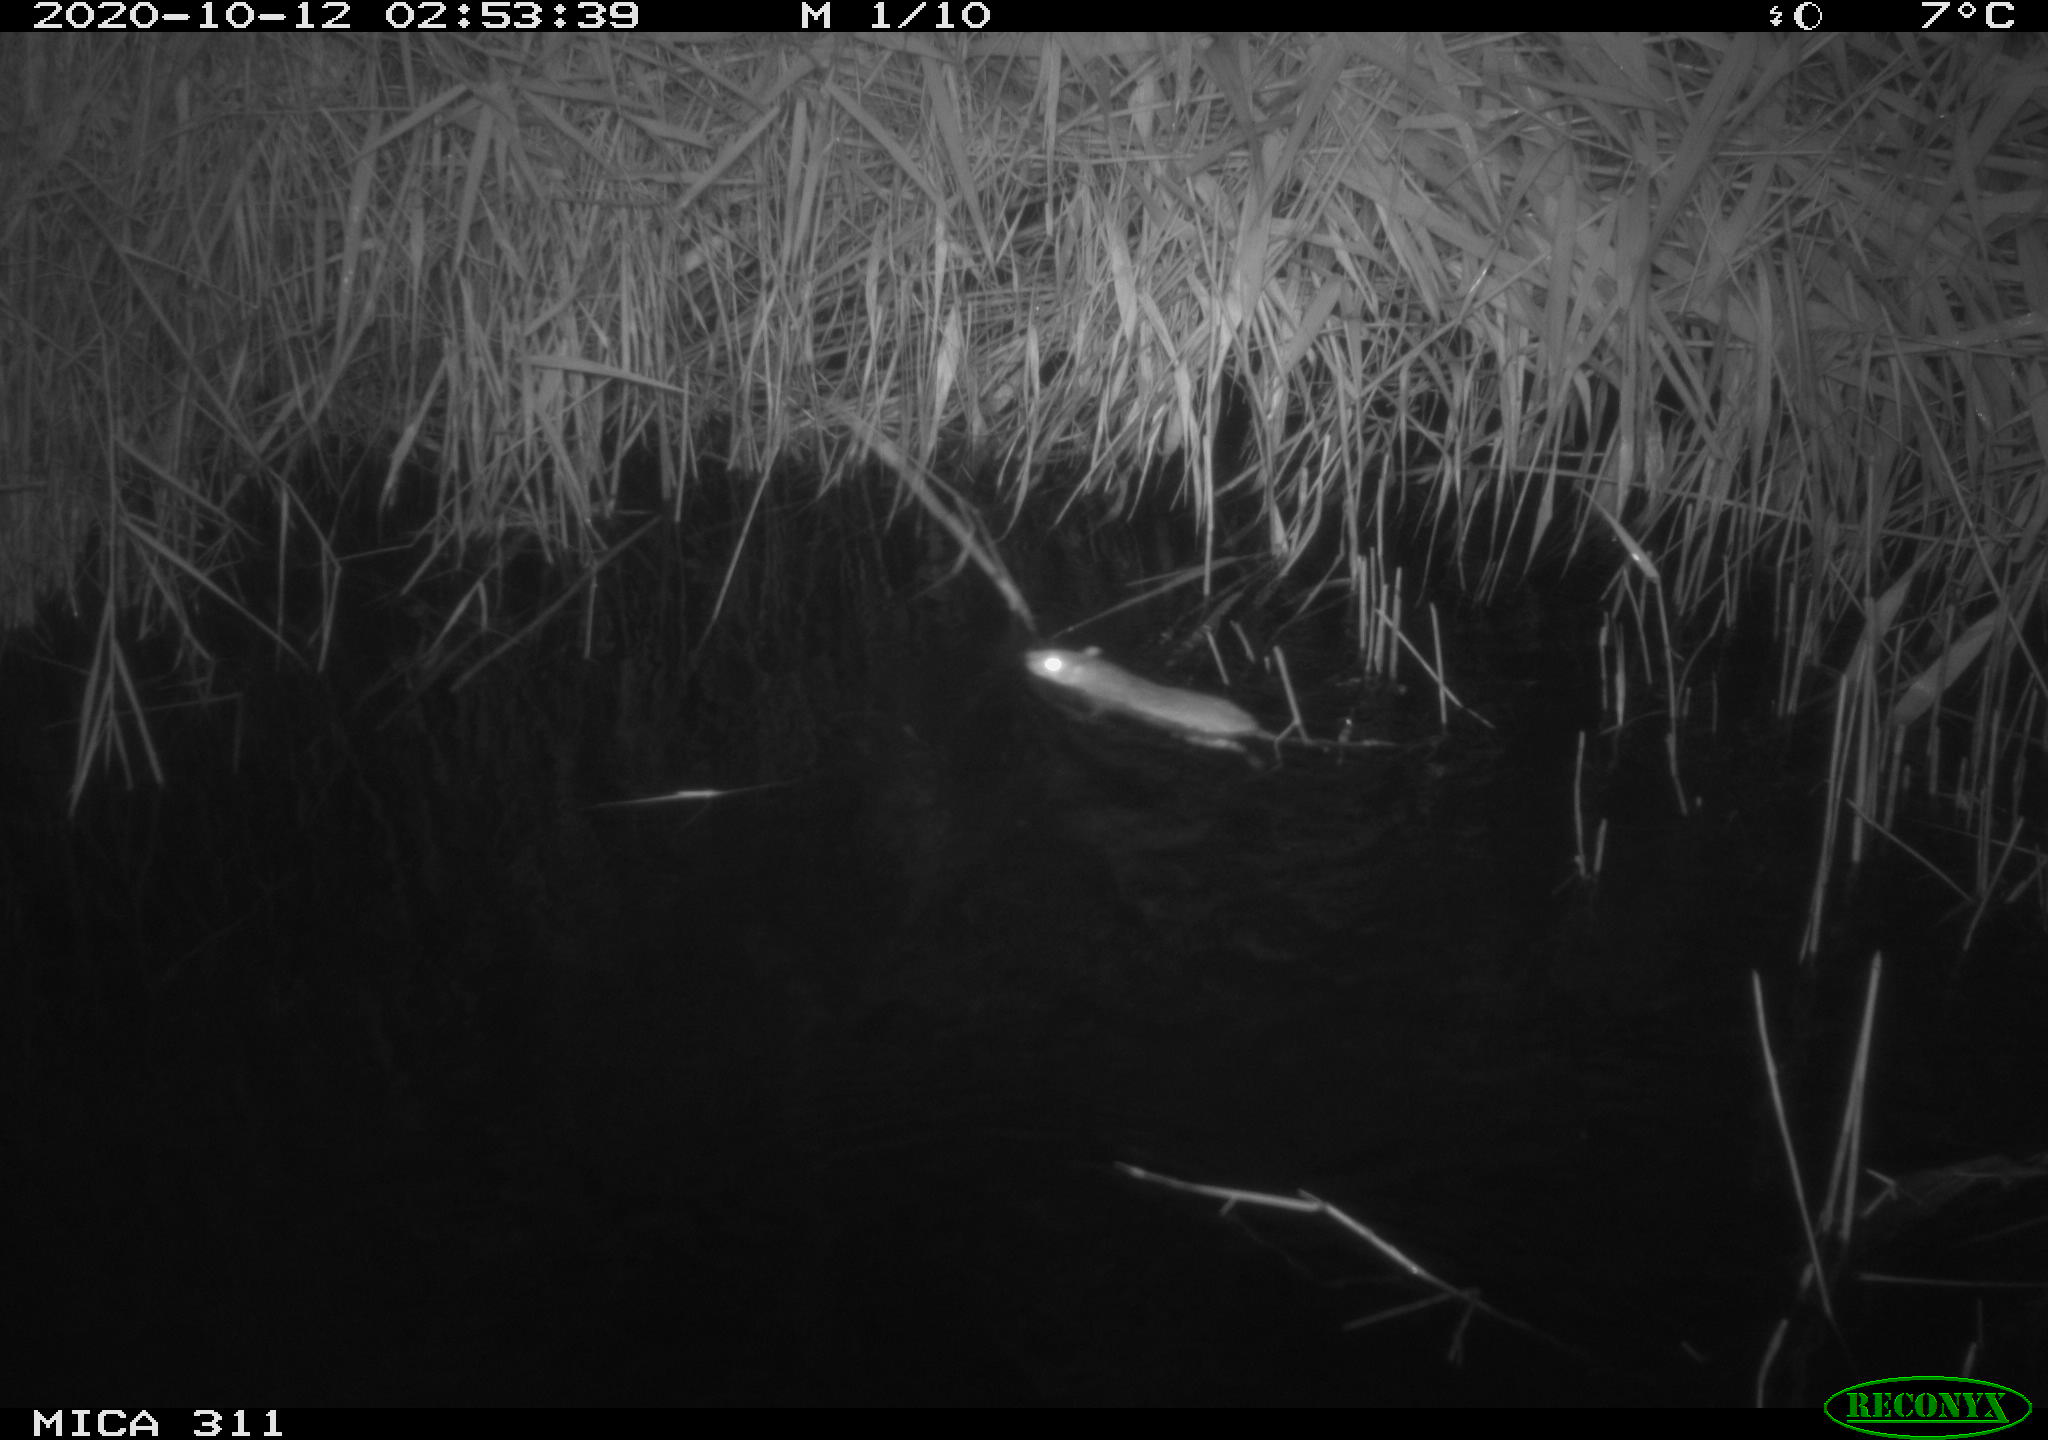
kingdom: Animalia
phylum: Chordata
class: Mammalia
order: Rodentia
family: Muridae
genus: Rattus
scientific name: Rattus norvegicus
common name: Brown rat
